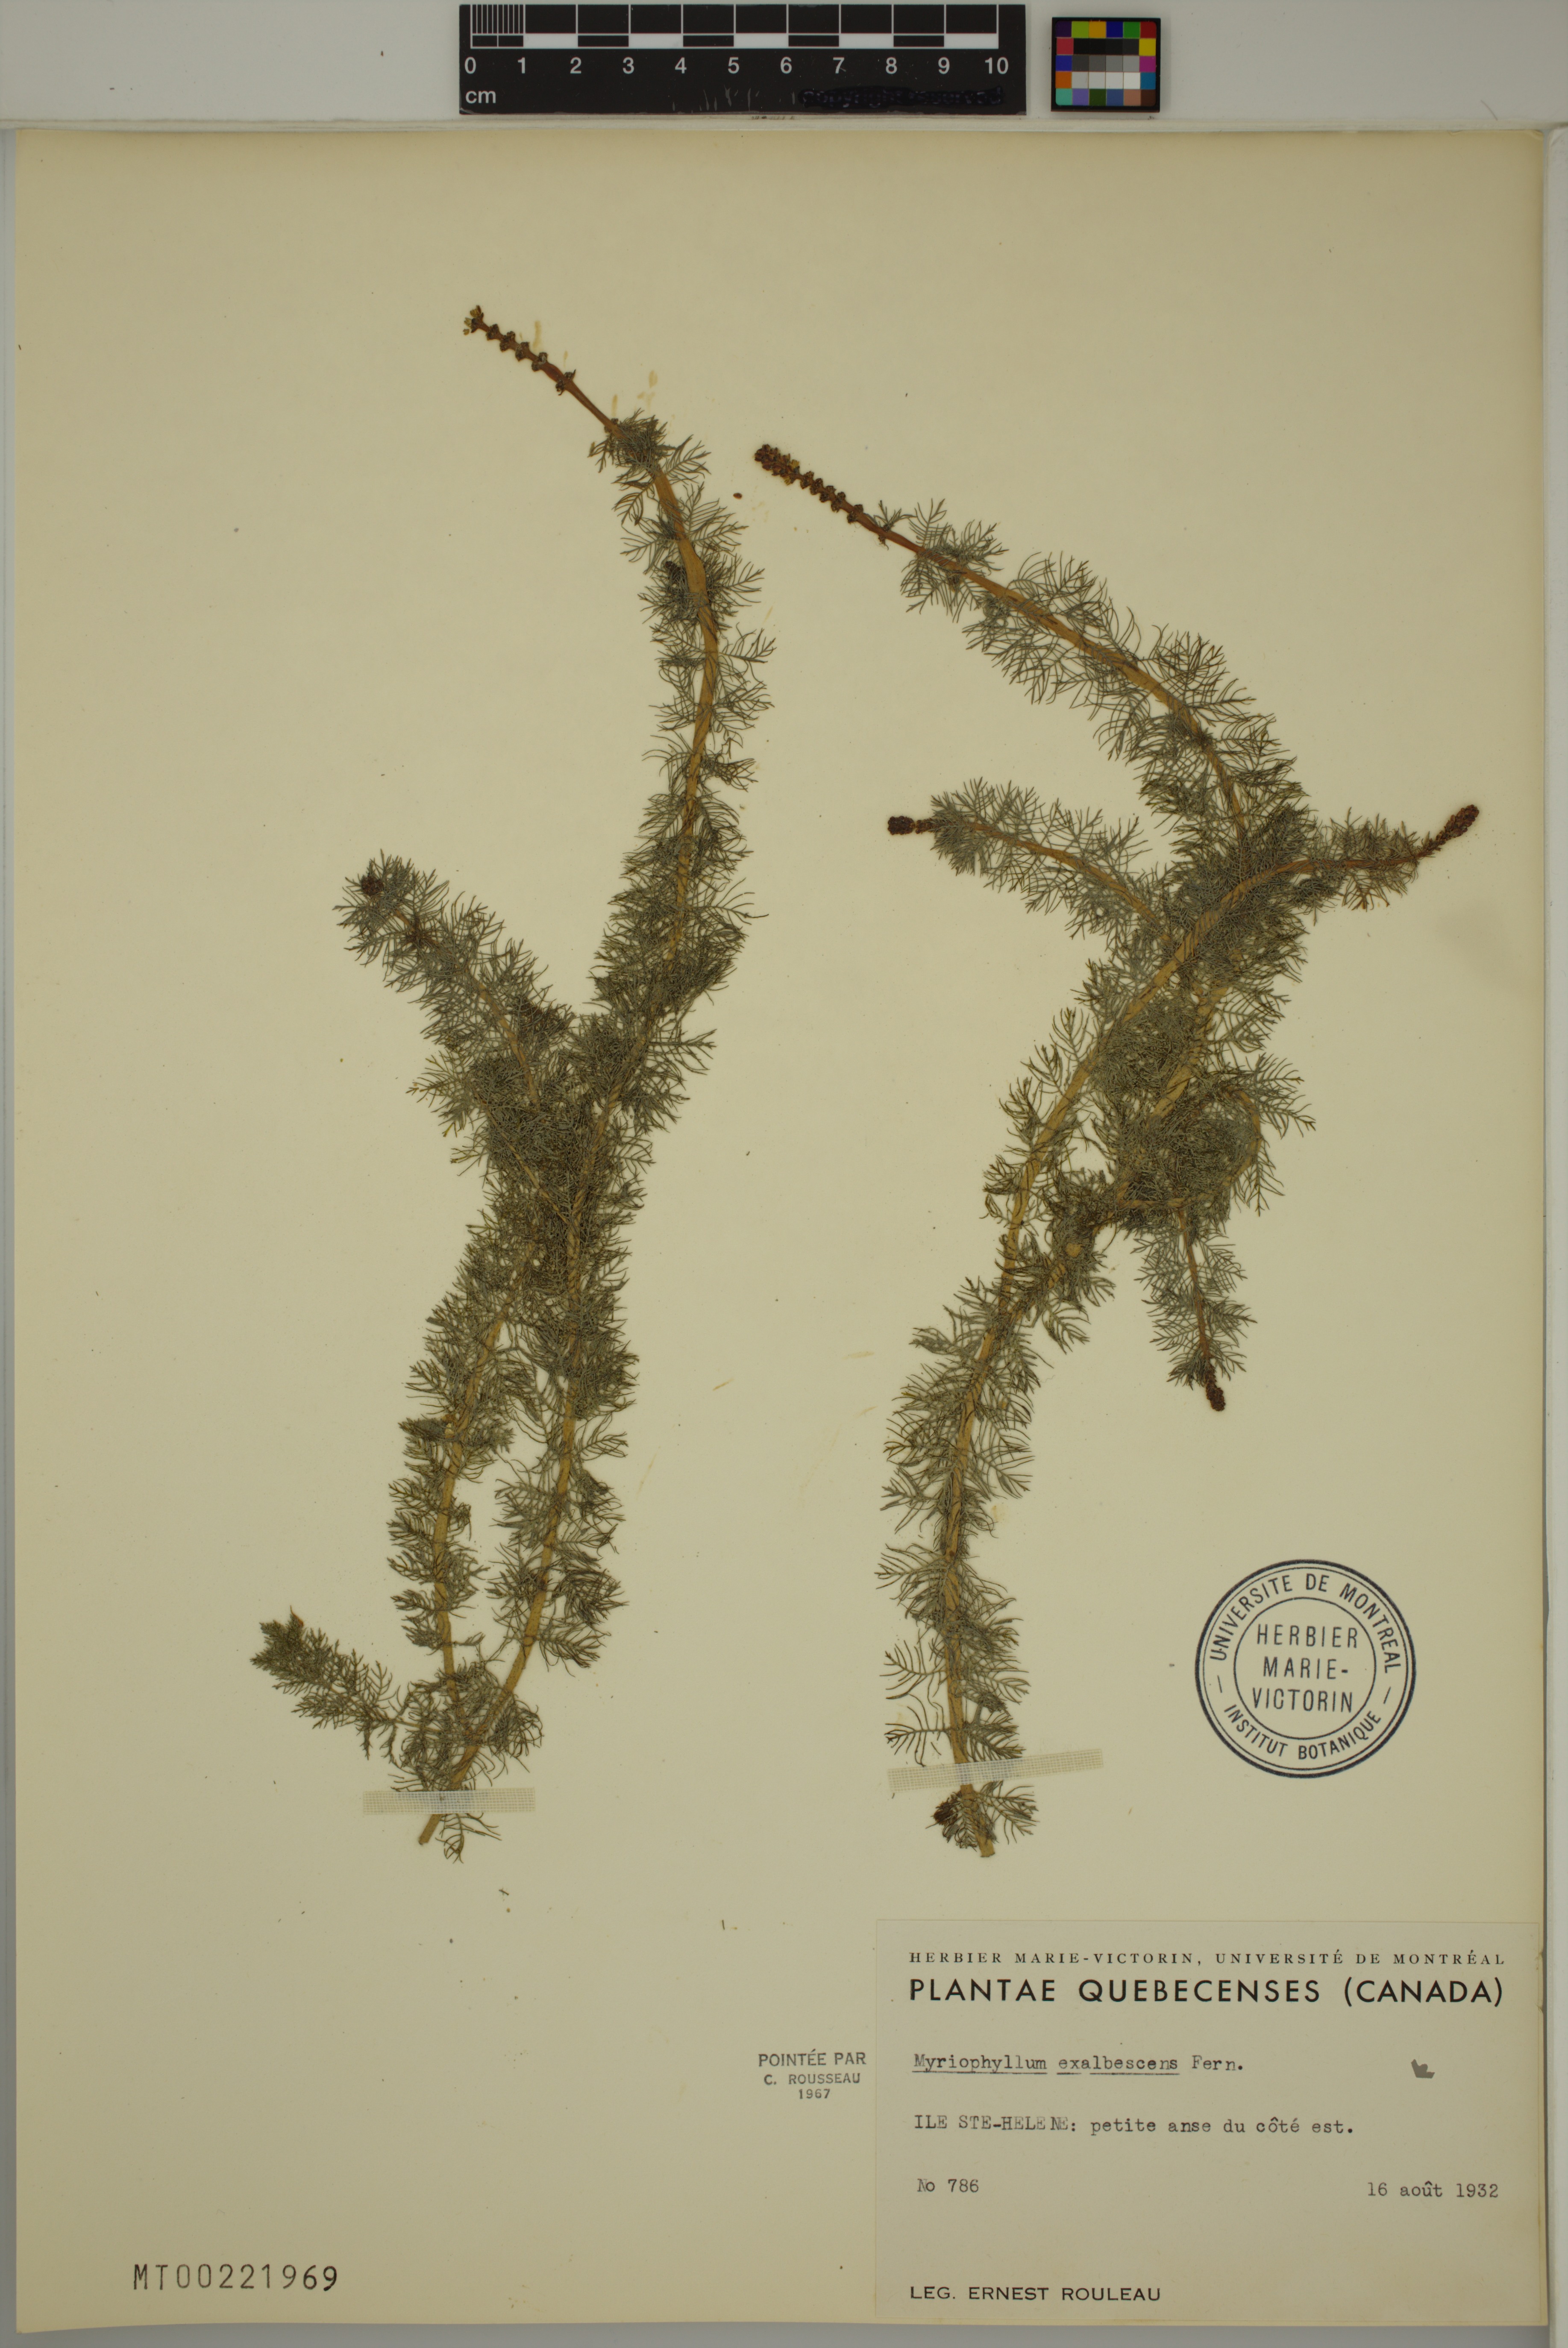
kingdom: Plantae
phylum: Tracheophyta
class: Magnoliopsida
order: Saxifragales
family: Haloragaceae
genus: Myriophyllum
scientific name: Myriophyllum sibiricum
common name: Siberian water-milfoil
